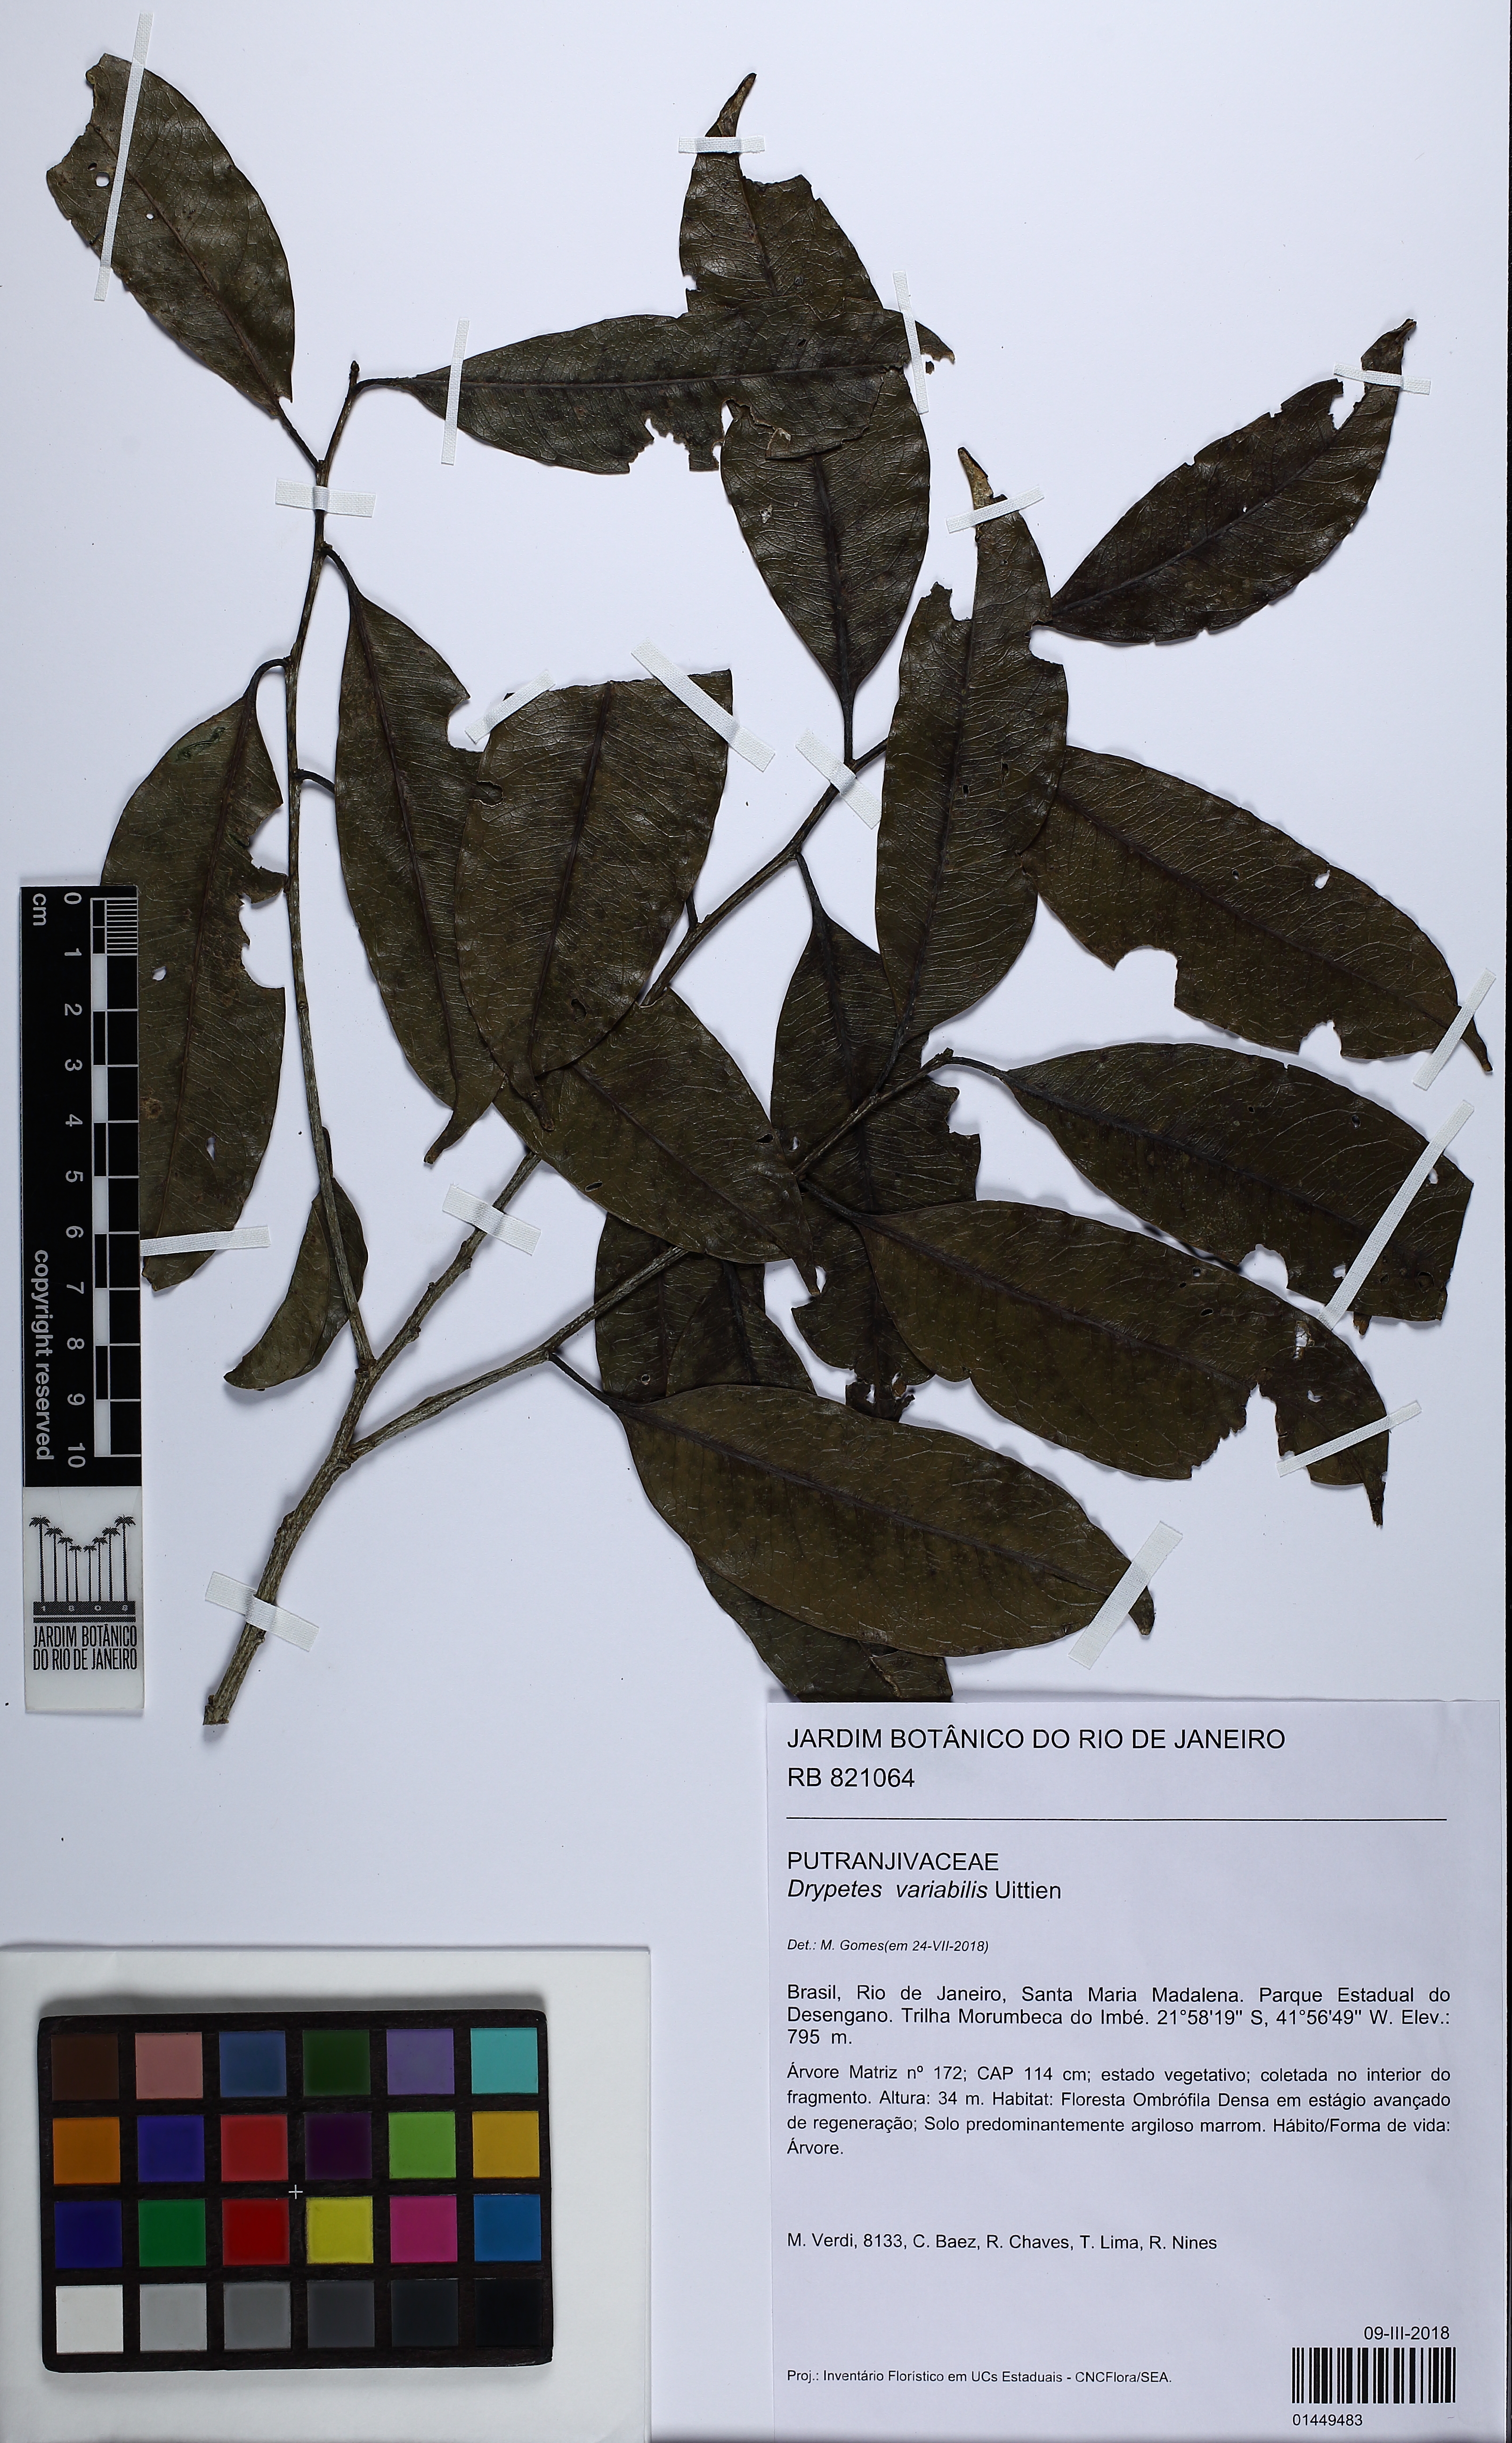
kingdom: Plantae
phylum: Tracheophyta
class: Magnoliopsida
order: Malpighiales
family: Putranjivaceae
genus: Drypetes
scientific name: Drypetes variabilis
